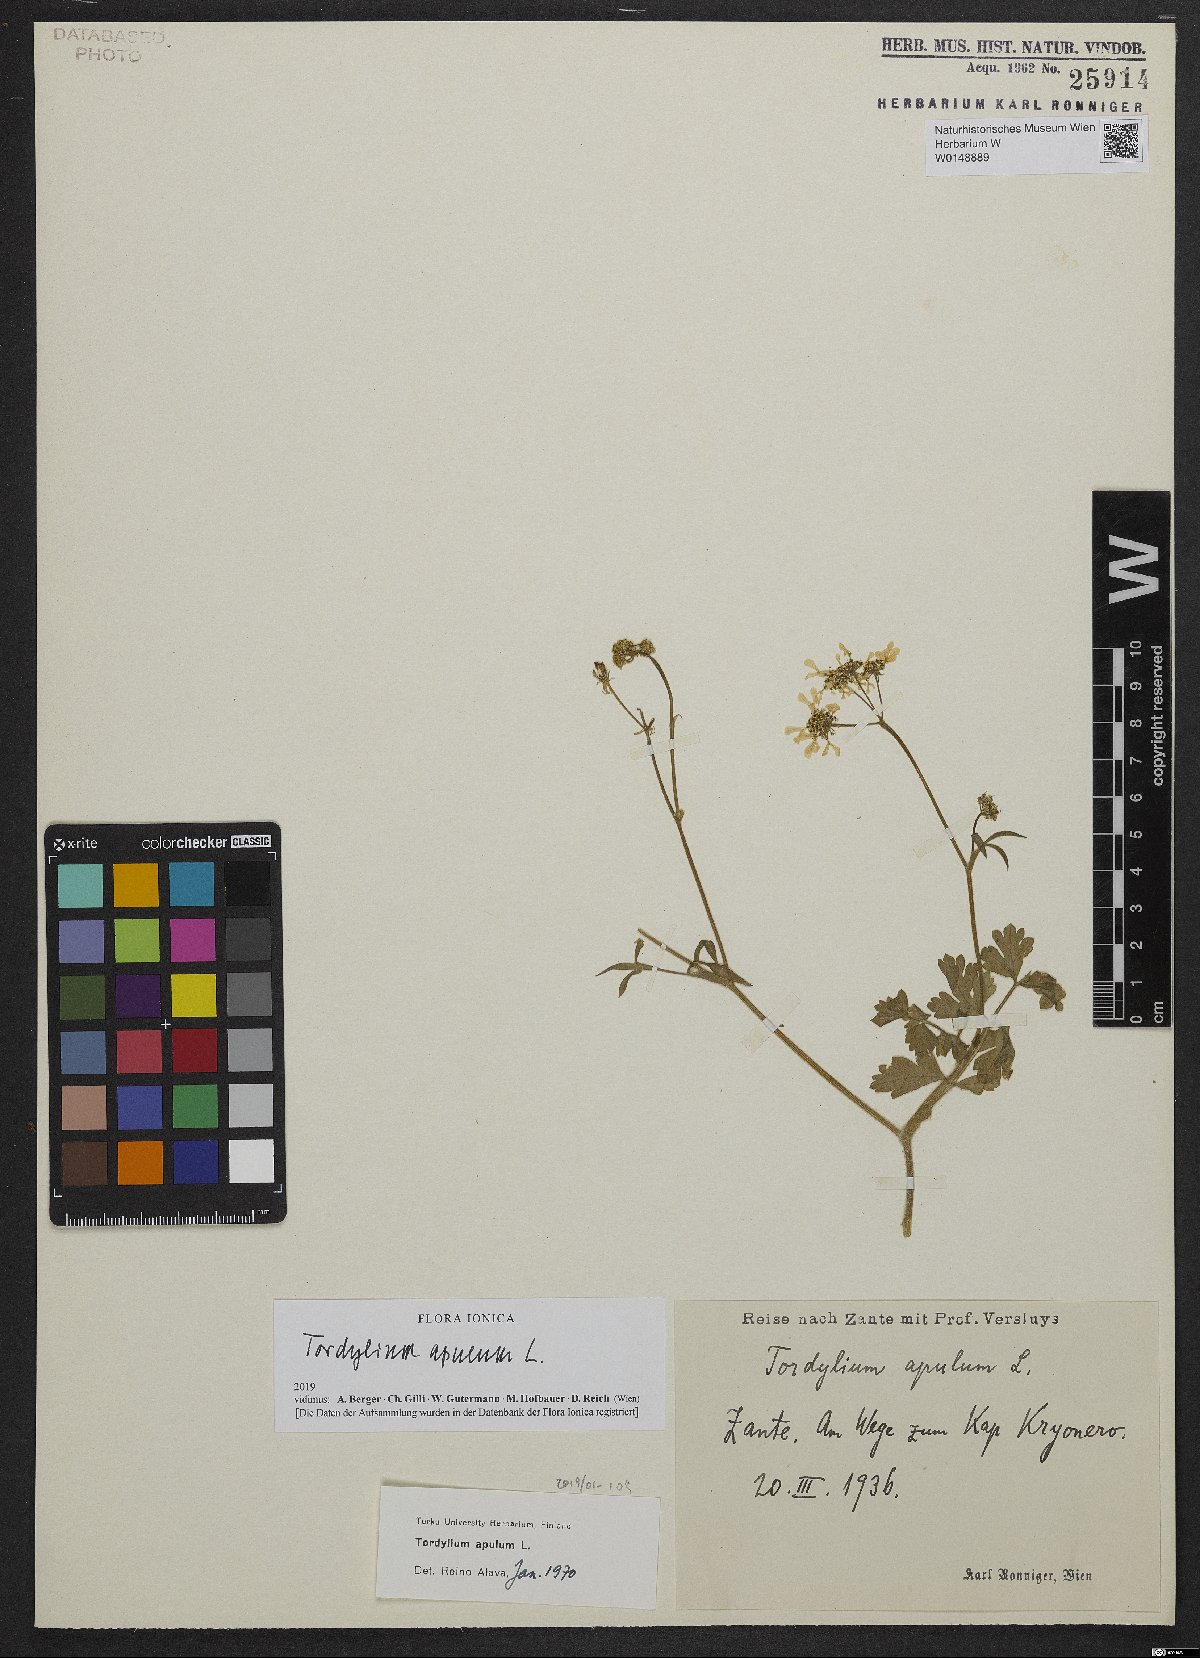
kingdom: Plantae
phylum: Tracheophyta
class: Magnoliopsida
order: Apiales
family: Apiaceae
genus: Tordylium
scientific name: Tordylium apulum
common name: Mediterranean hartwort
